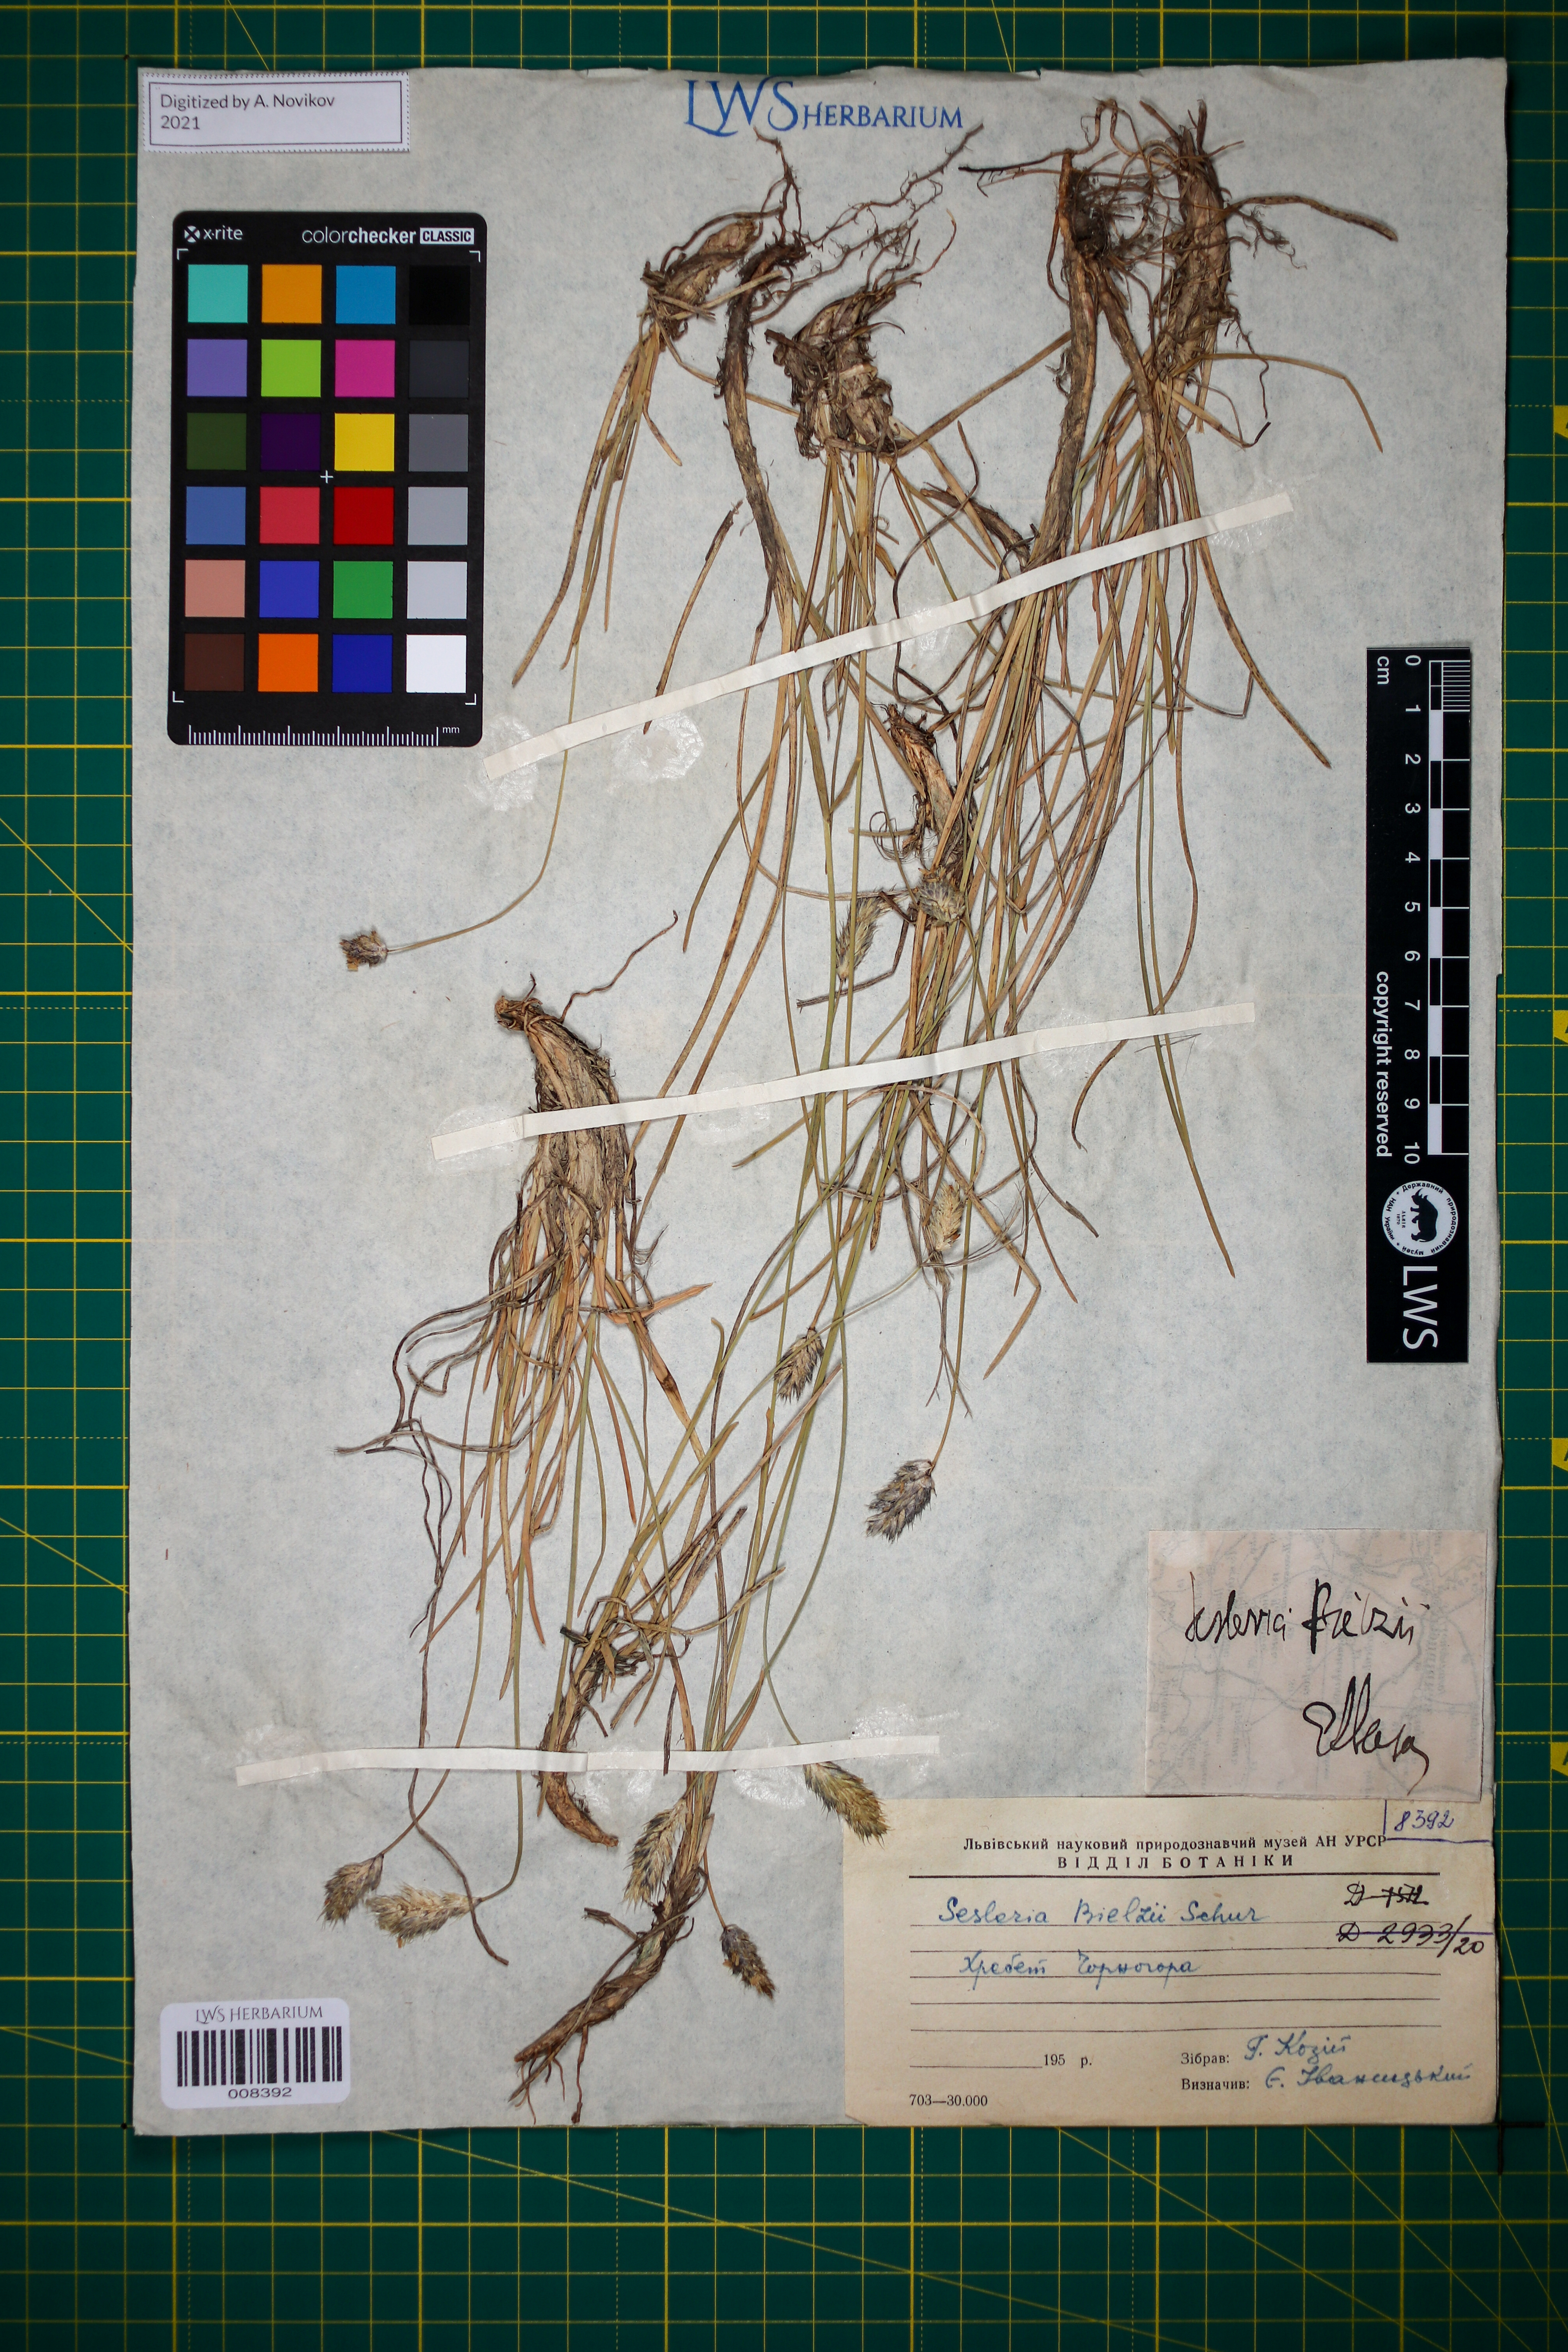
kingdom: Plantae
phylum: Tracheophyta
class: Liliopsida
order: Poales
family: Poaceae
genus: Sesleria
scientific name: Sesleria bielzii
